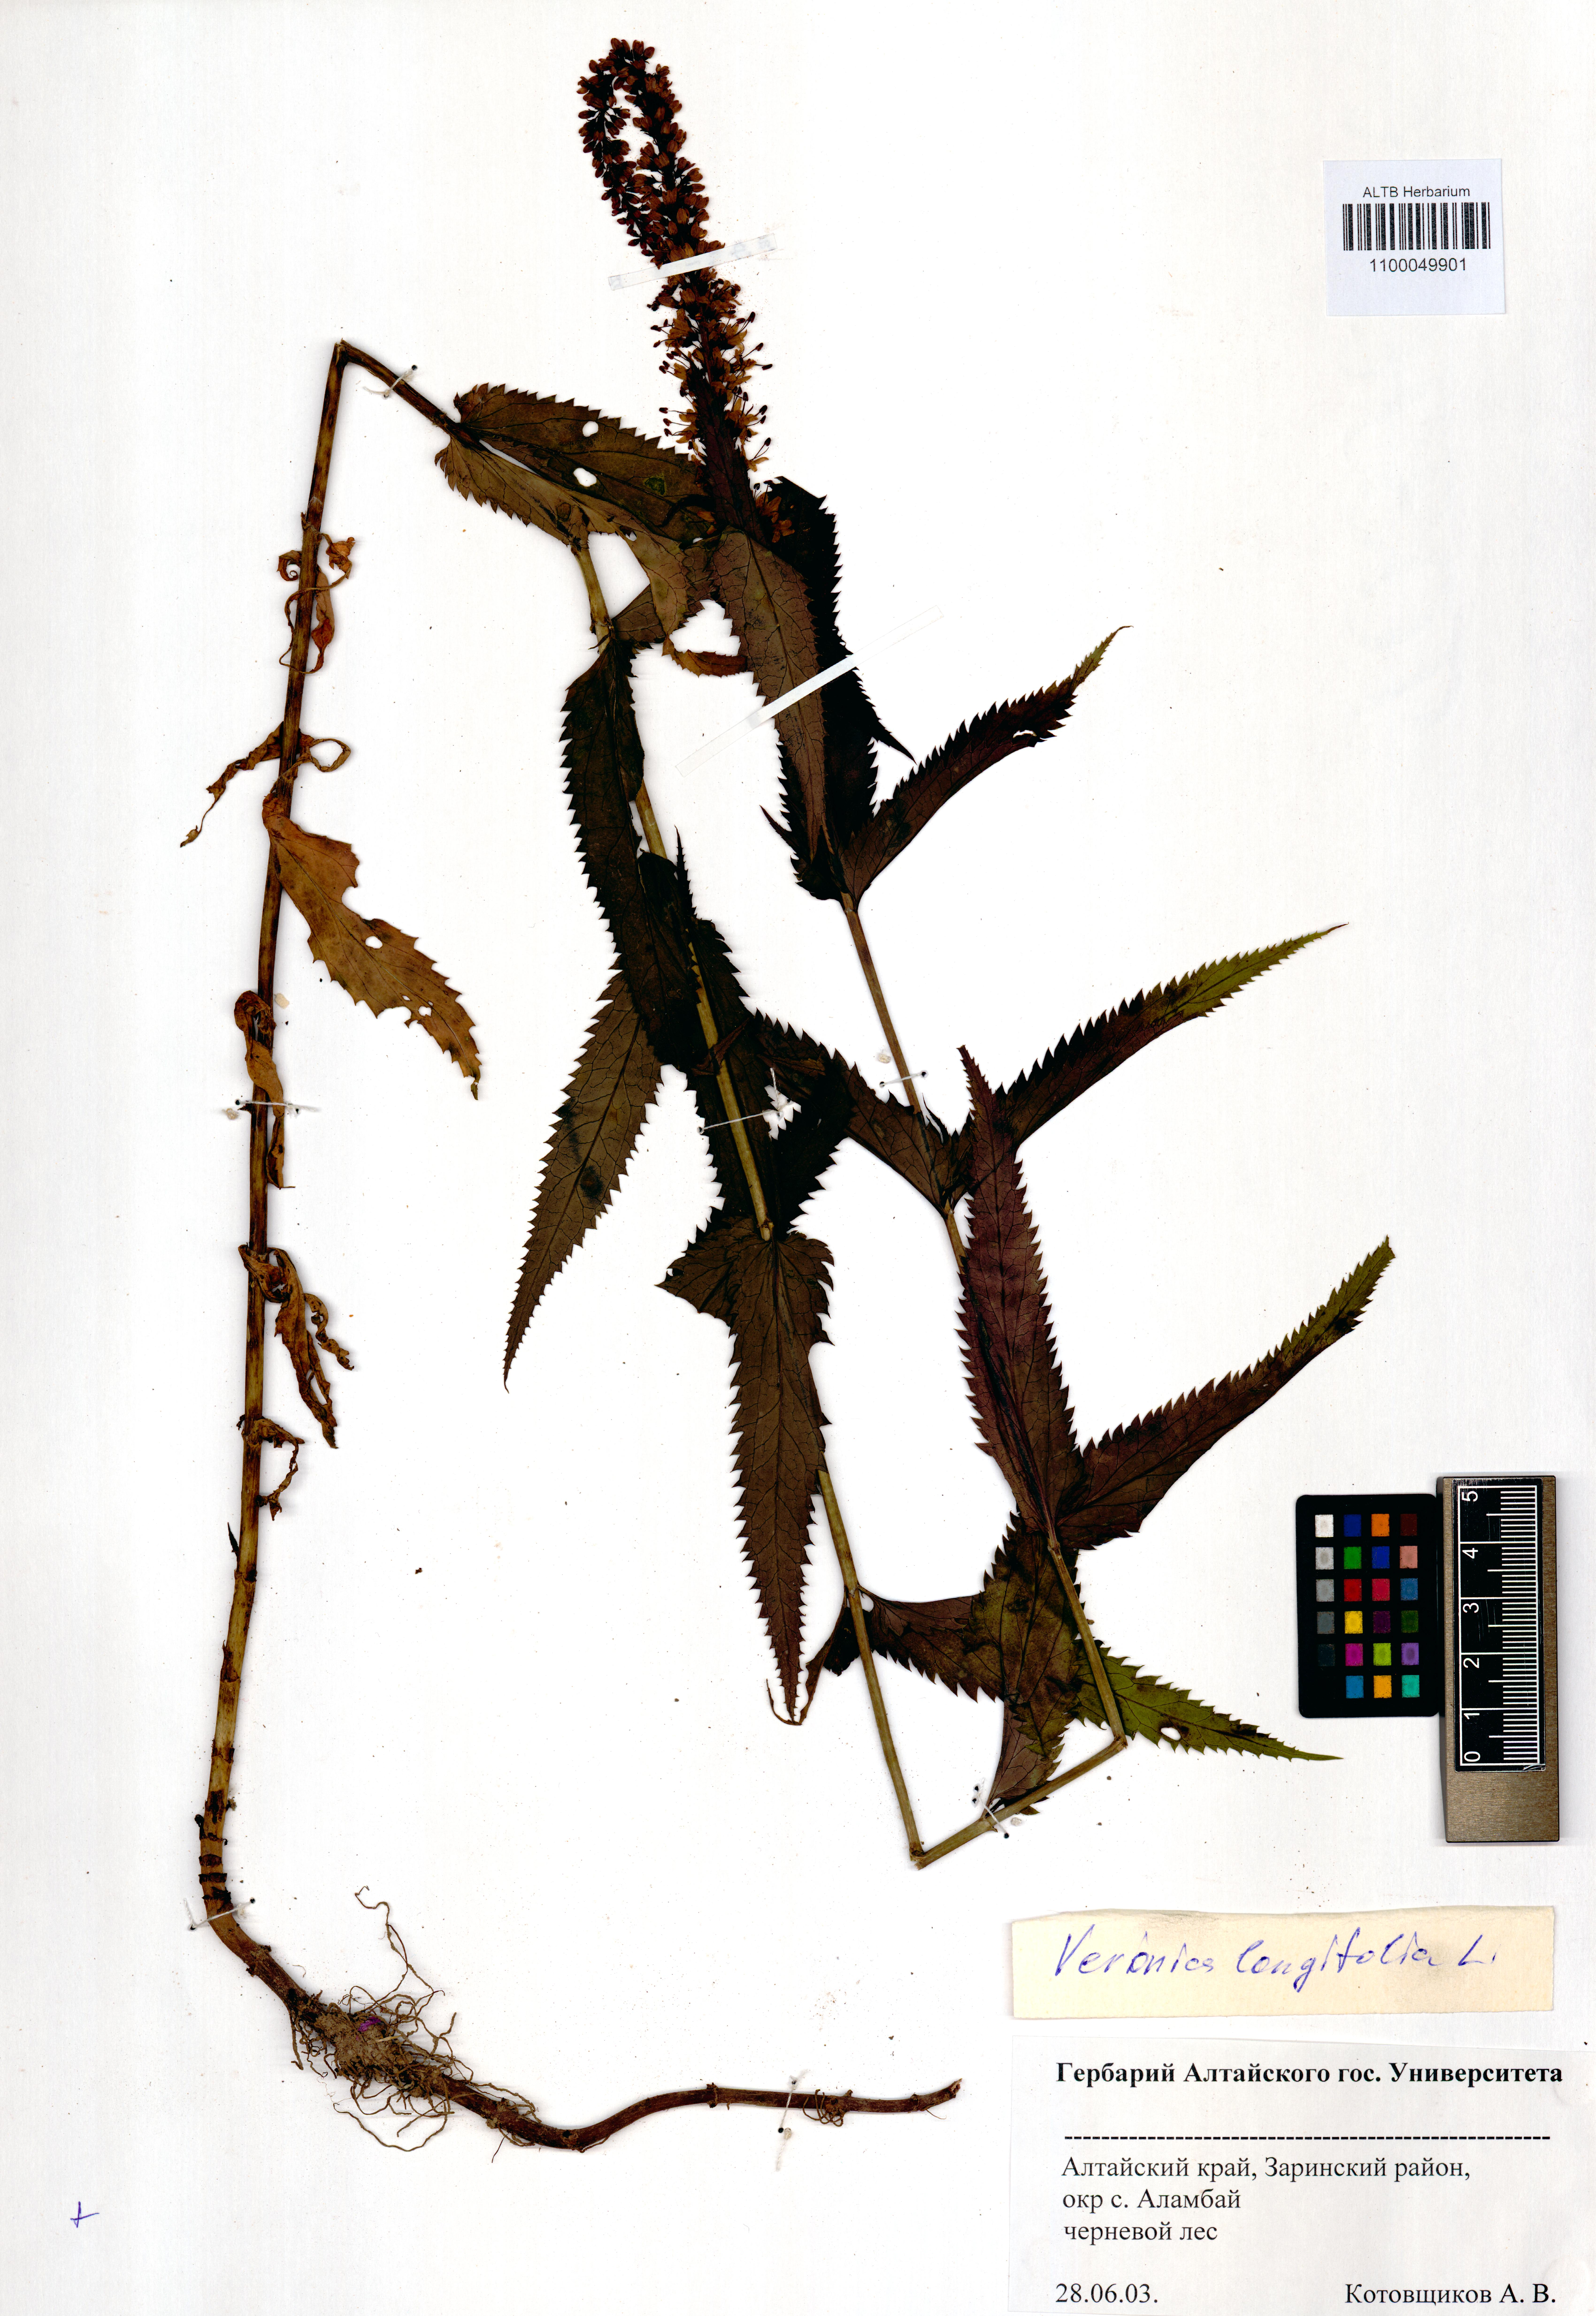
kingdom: Plantae
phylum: Tracheophyta
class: Magnoliopsida
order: Lamiales
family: Plantaginaceae
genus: Veronica
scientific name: Veronica longifolia
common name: Garden speedwell
